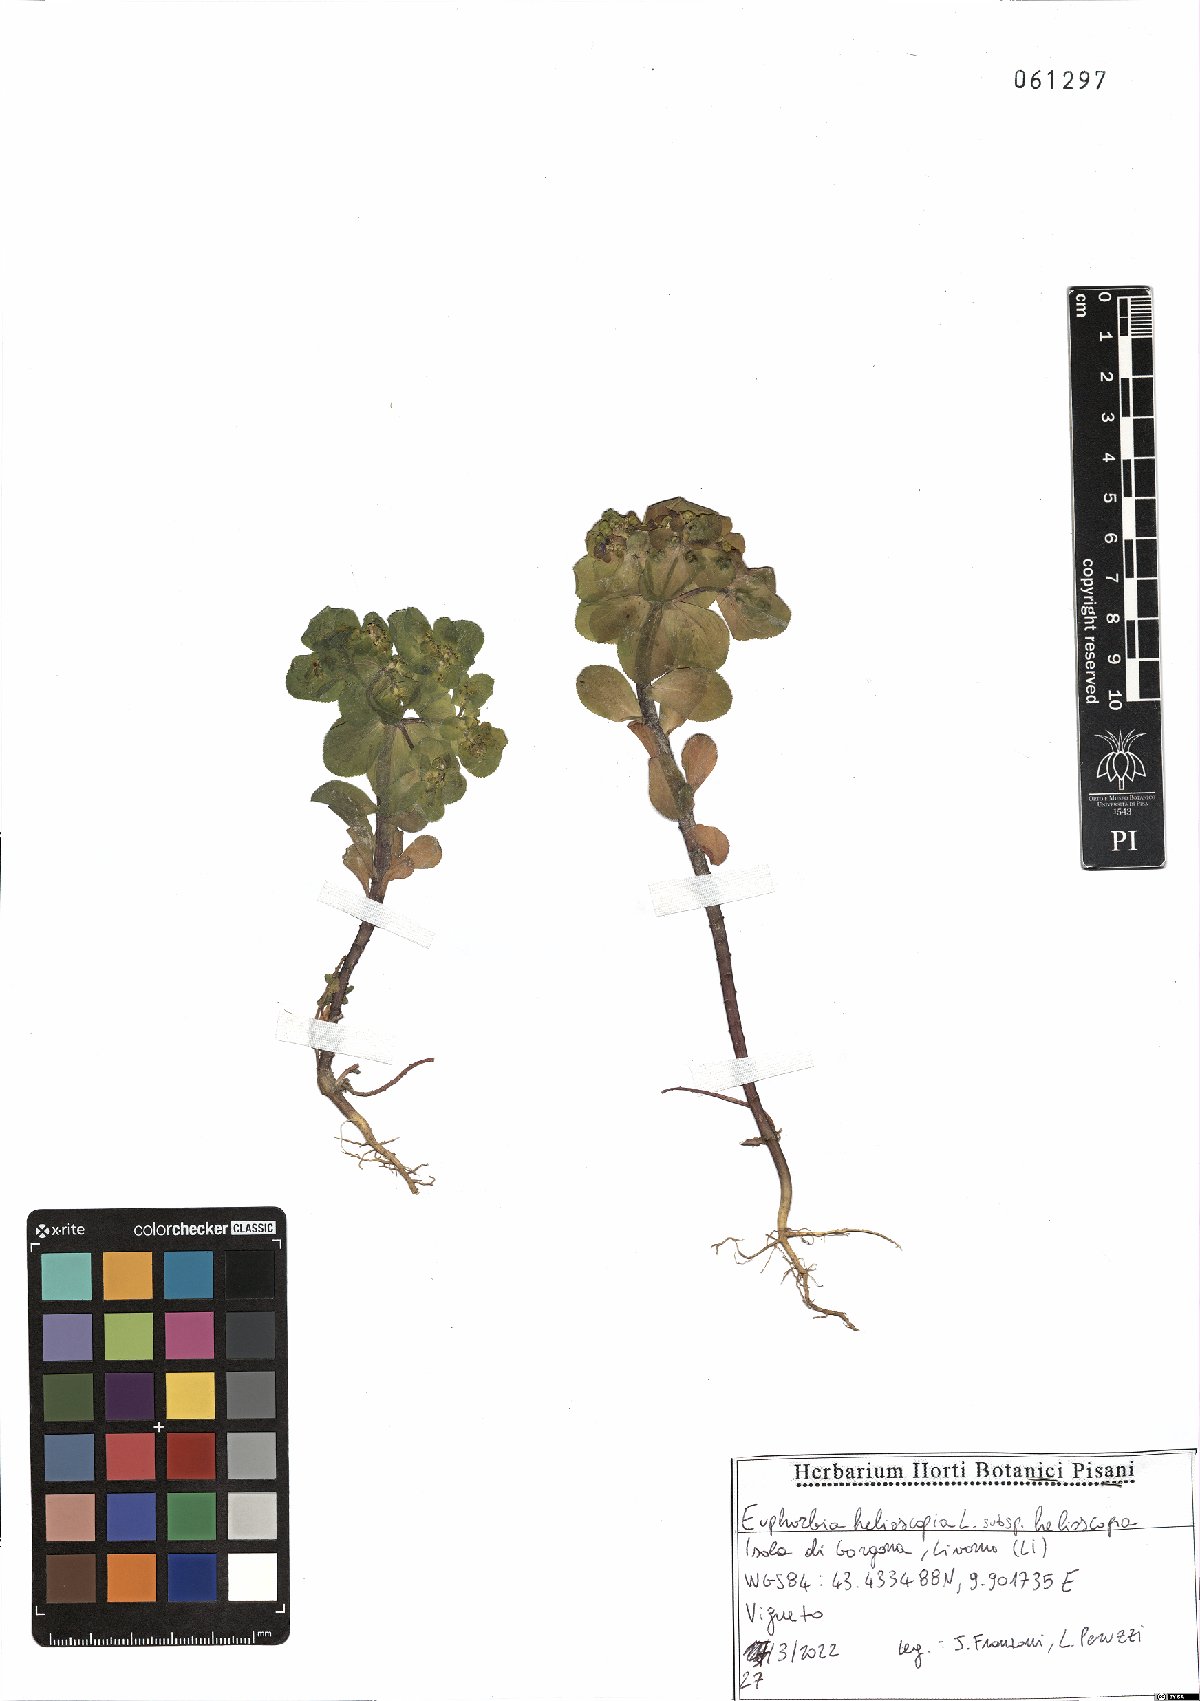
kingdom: Plantae
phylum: Tracheophyta
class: Magnoliopsida
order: Malpighiales
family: Euphorbiaceae
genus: Euphorbia
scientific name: Euphorbia helioscopia
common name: Sun spurge
